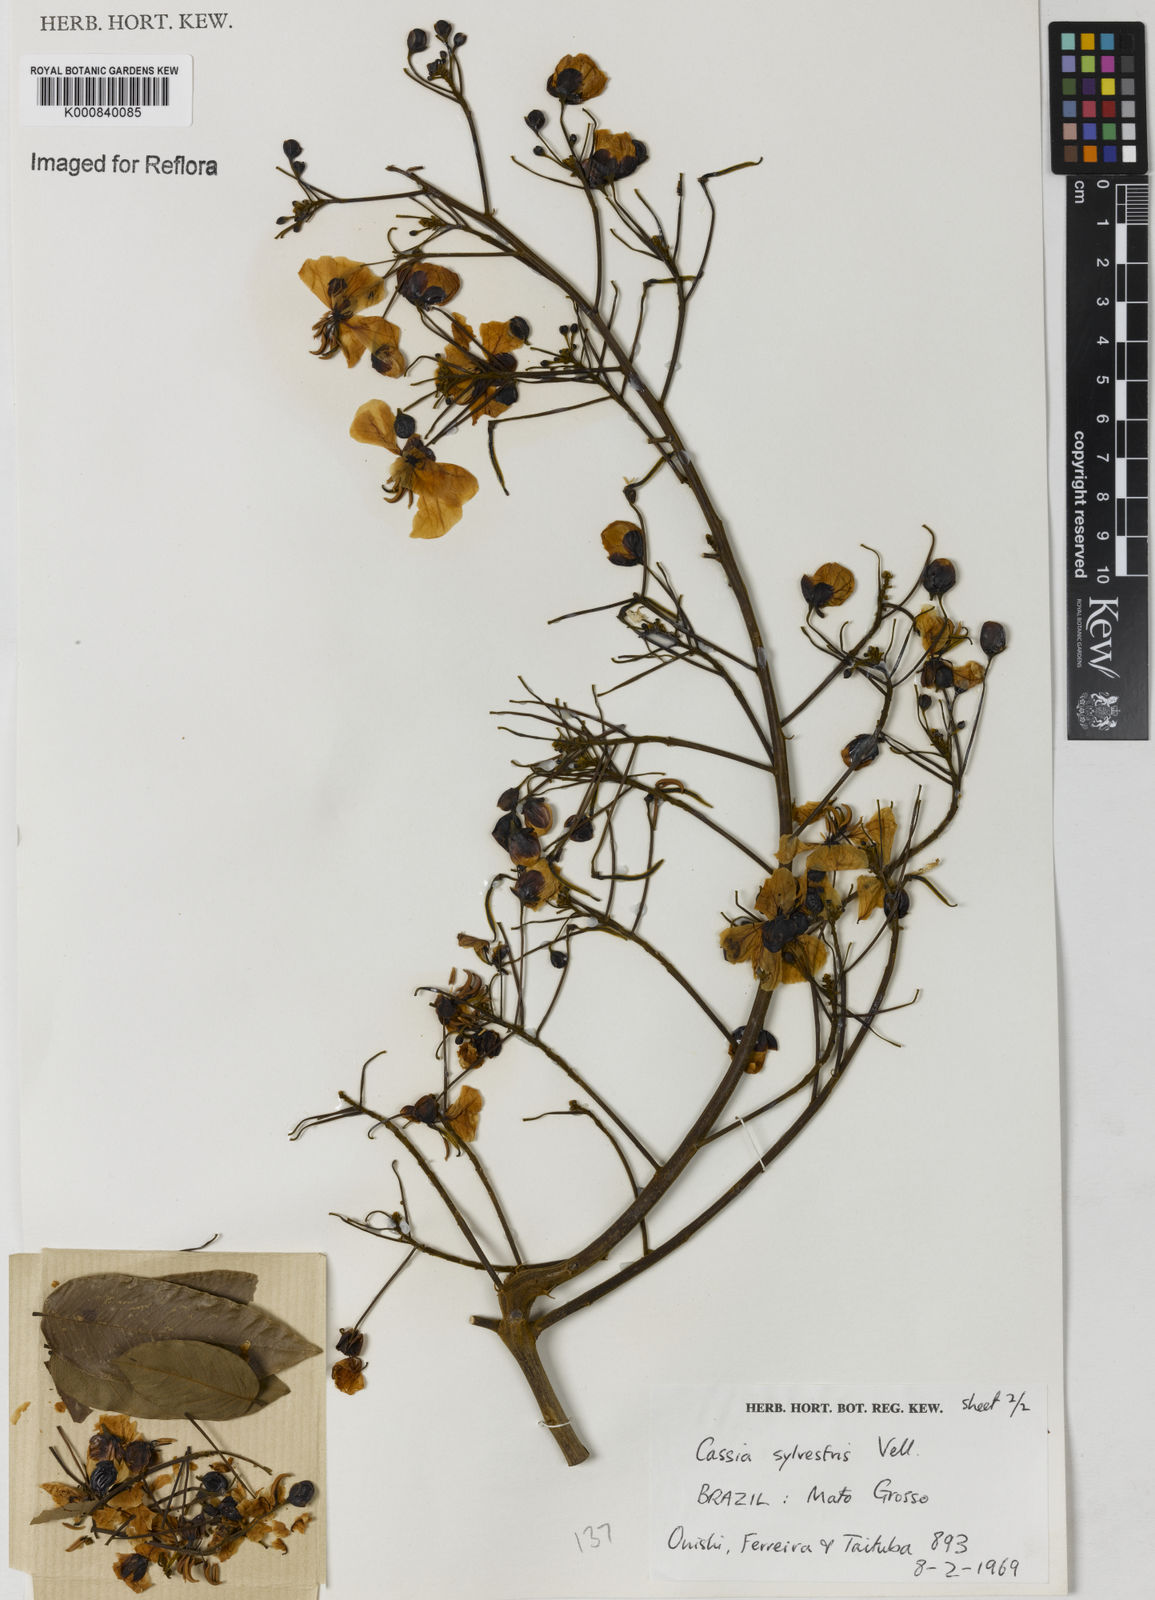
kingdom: Plantae
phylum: Tracheophyta
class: Magnoliopsida
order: Fabales
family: Fabaceae
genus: Senna
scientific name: Senna silvestris
